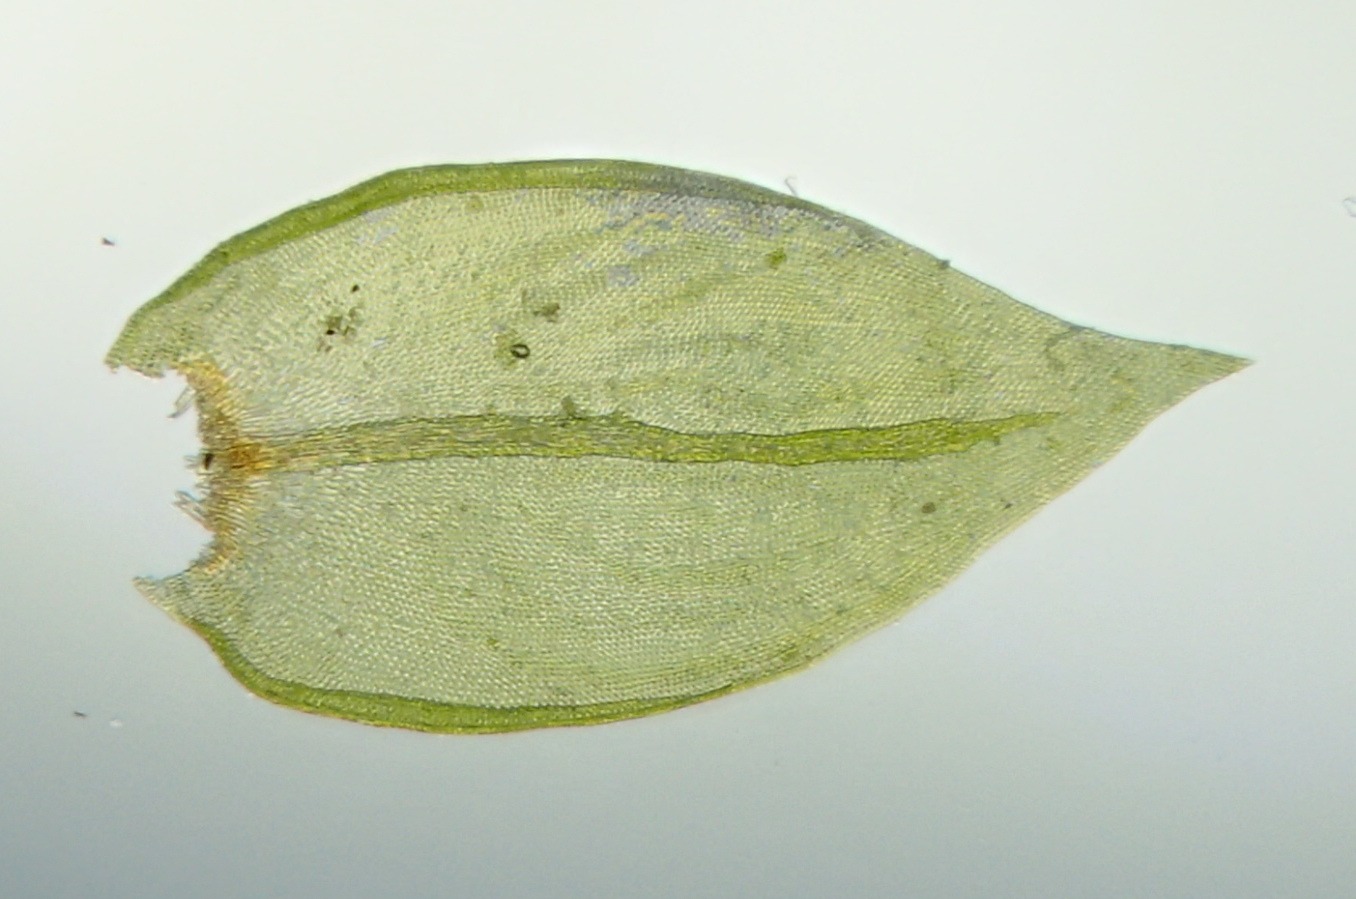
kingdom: Plantae
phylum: Bryophyta
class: Bryopsida
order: Hypnales
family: Cryphaeaceae
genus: Cryphaea
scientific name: Cryphaea heteromalla
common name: Bark-dækmos
